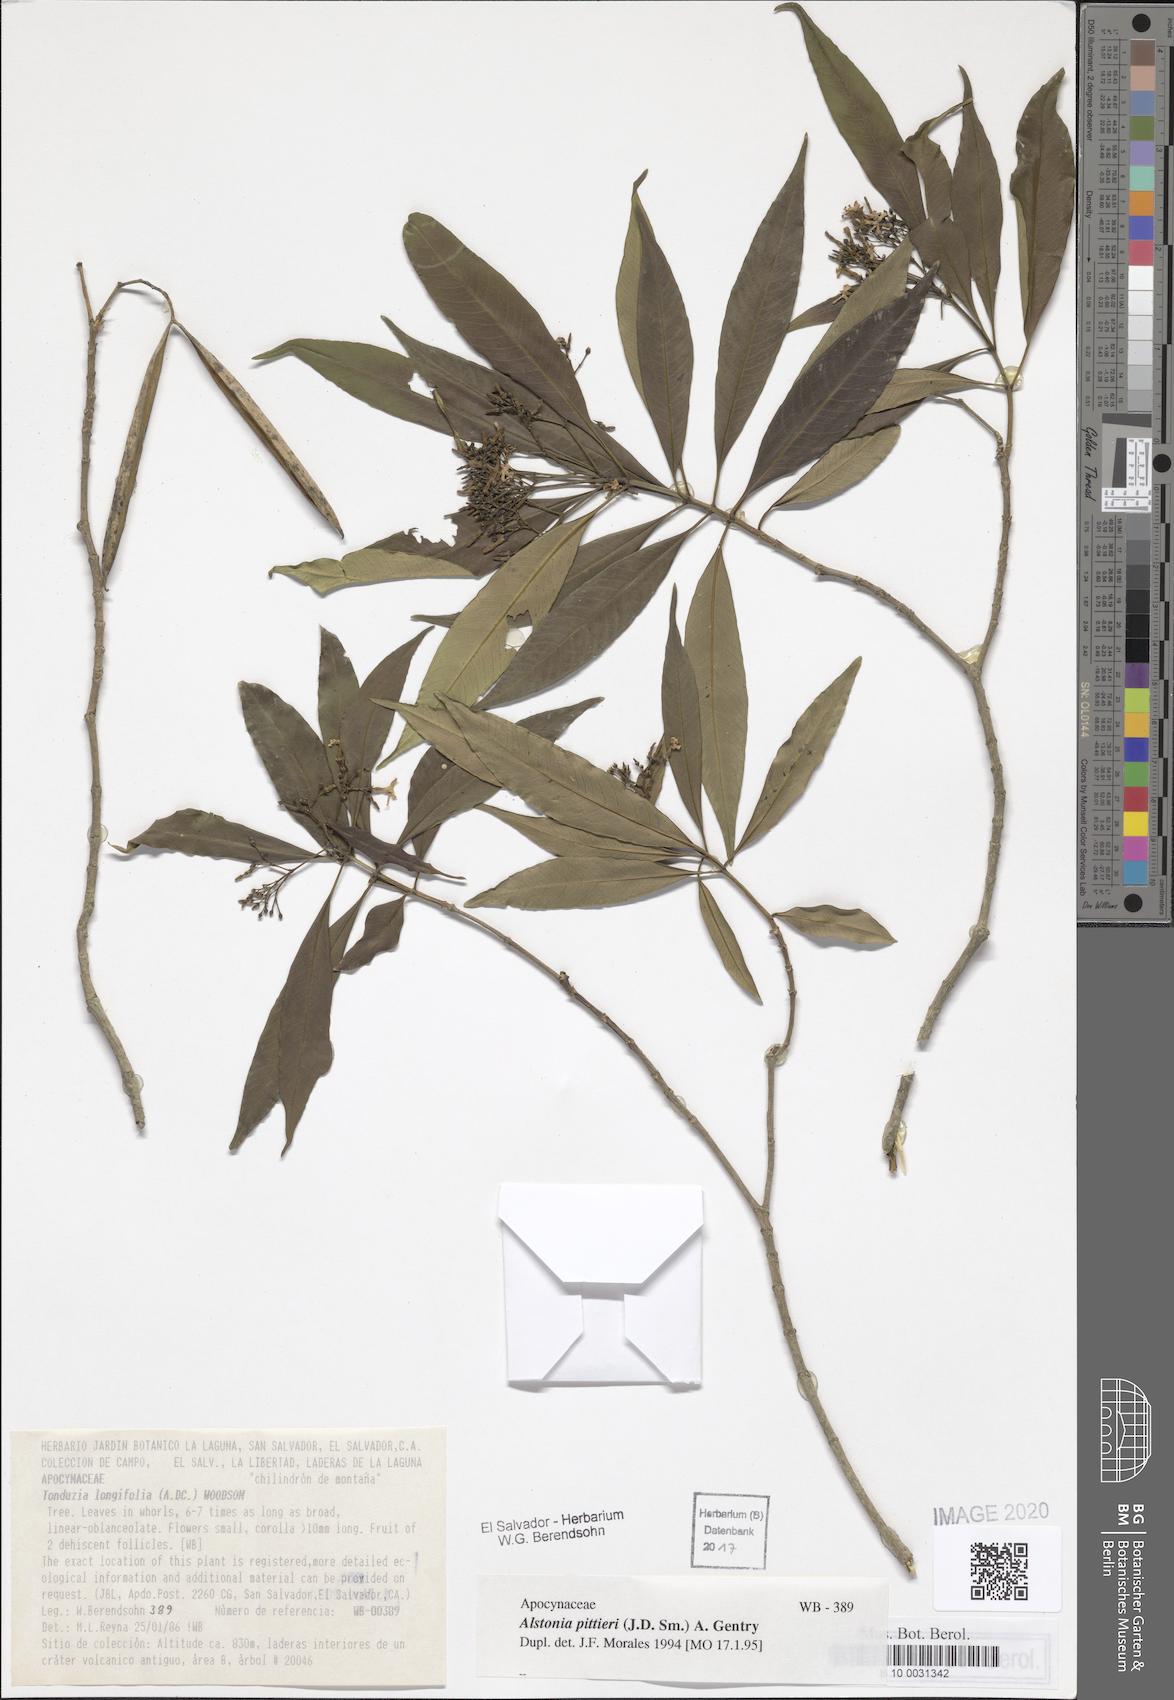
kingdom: Plantae
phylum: Tracheophyta
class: Magnoliopsida
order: Gentianales
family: Apocynaceae
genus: Tonduzia
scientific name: Tonduzia longifolia
